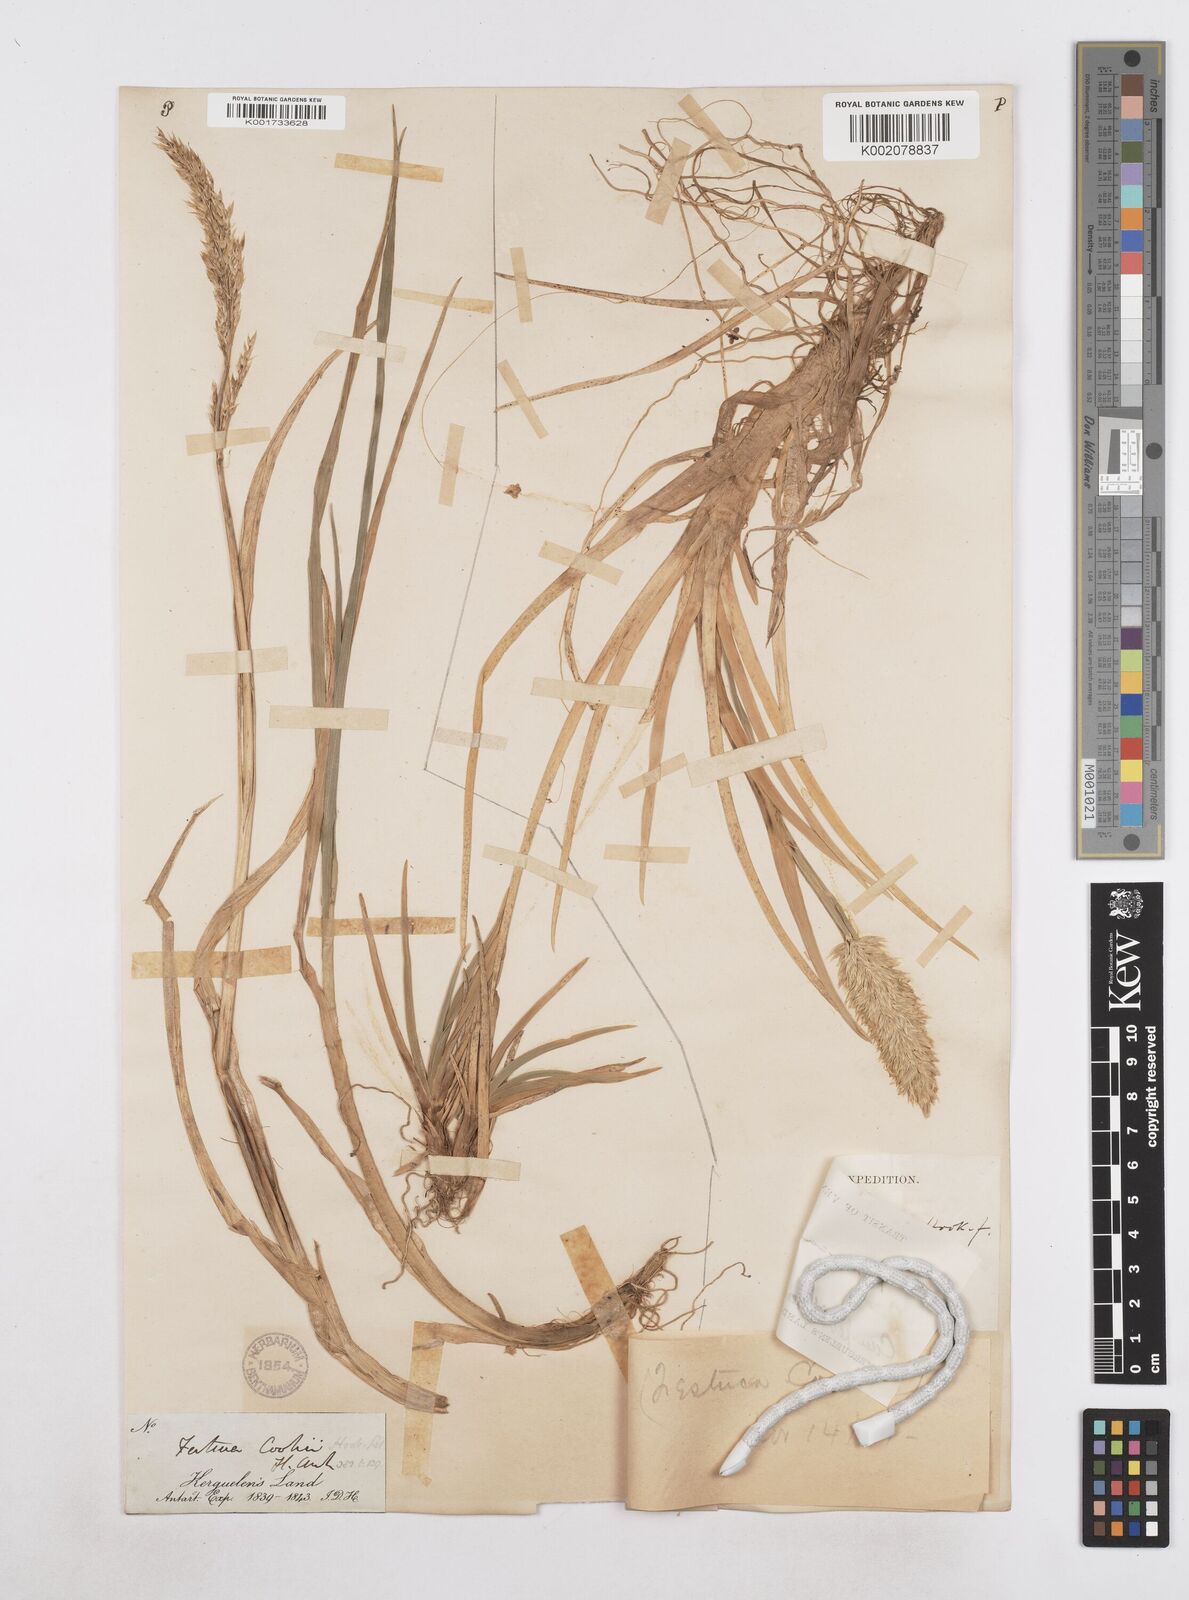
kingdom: Plantae
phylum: Tracheophyta
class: Liliopsida
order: Poales
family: Poaceae
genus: Poa
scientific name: Poa cookii
